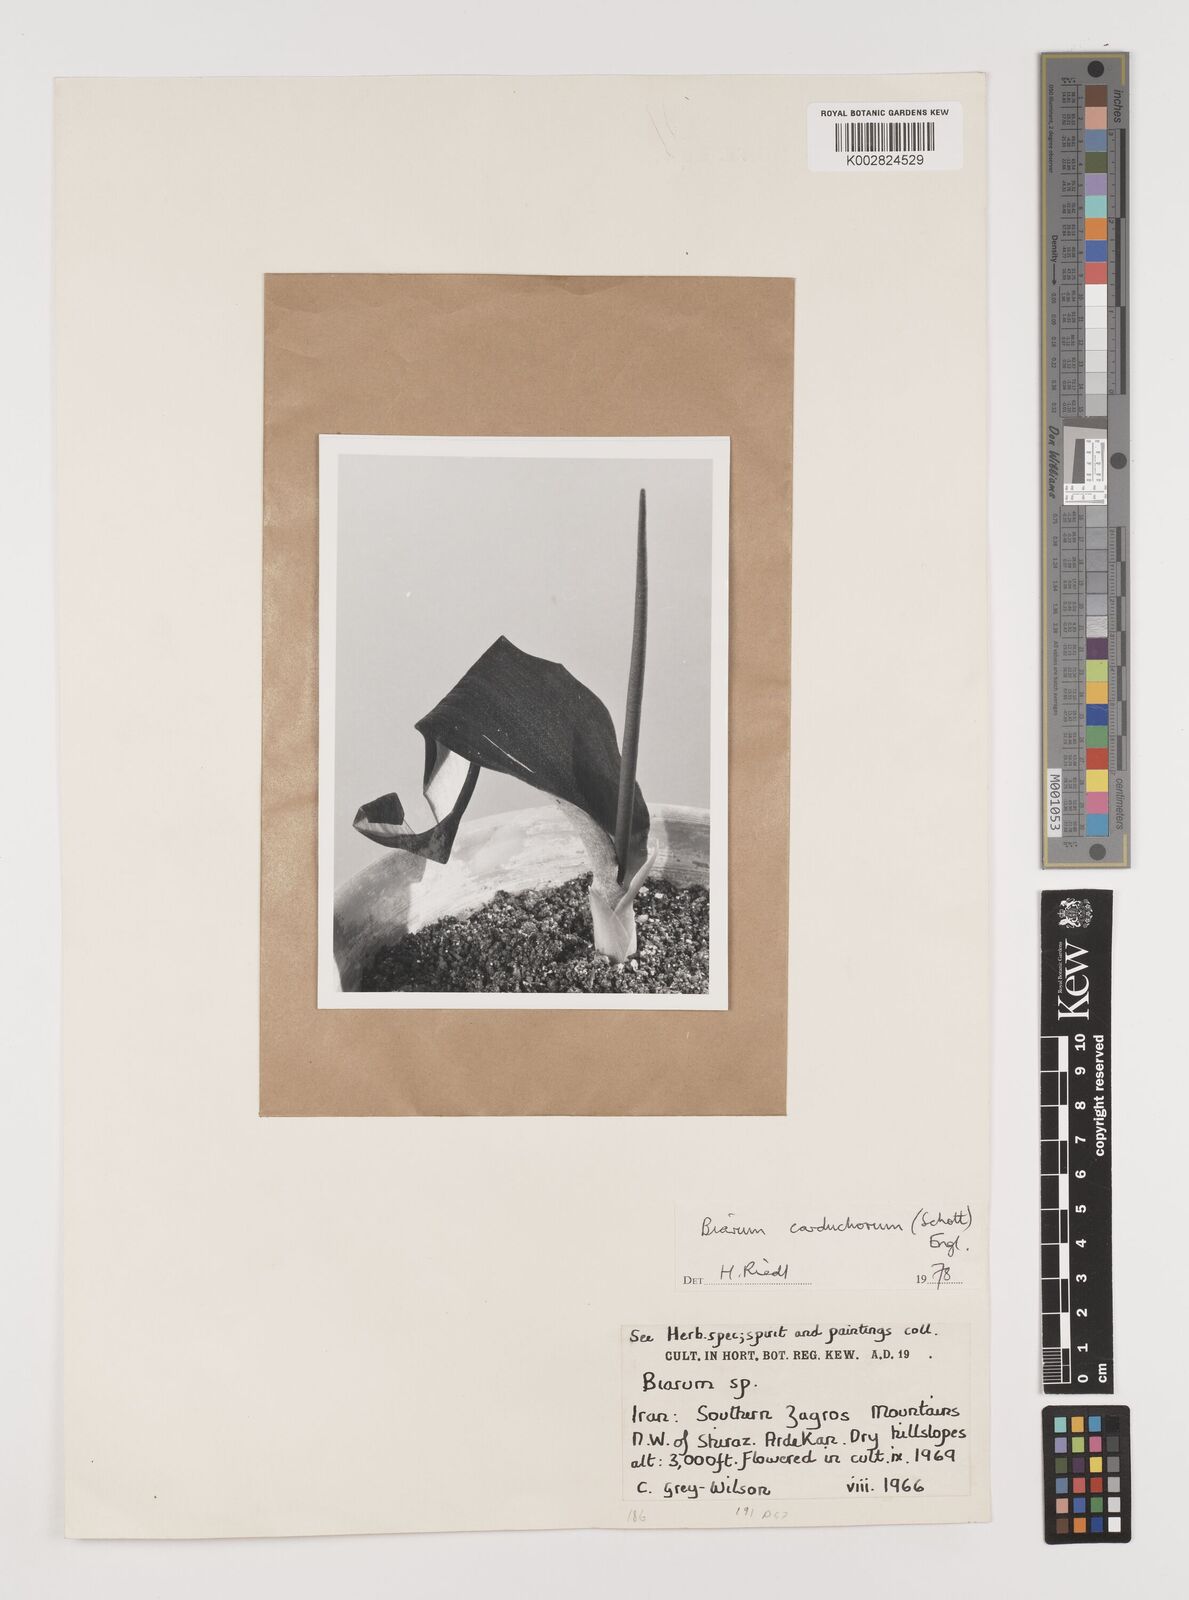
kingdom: Plantae
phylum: Tracheophyta
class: Liliopsida
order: Alismatales
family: Araceae
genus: Biarum
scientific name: Biarum carduchorum
